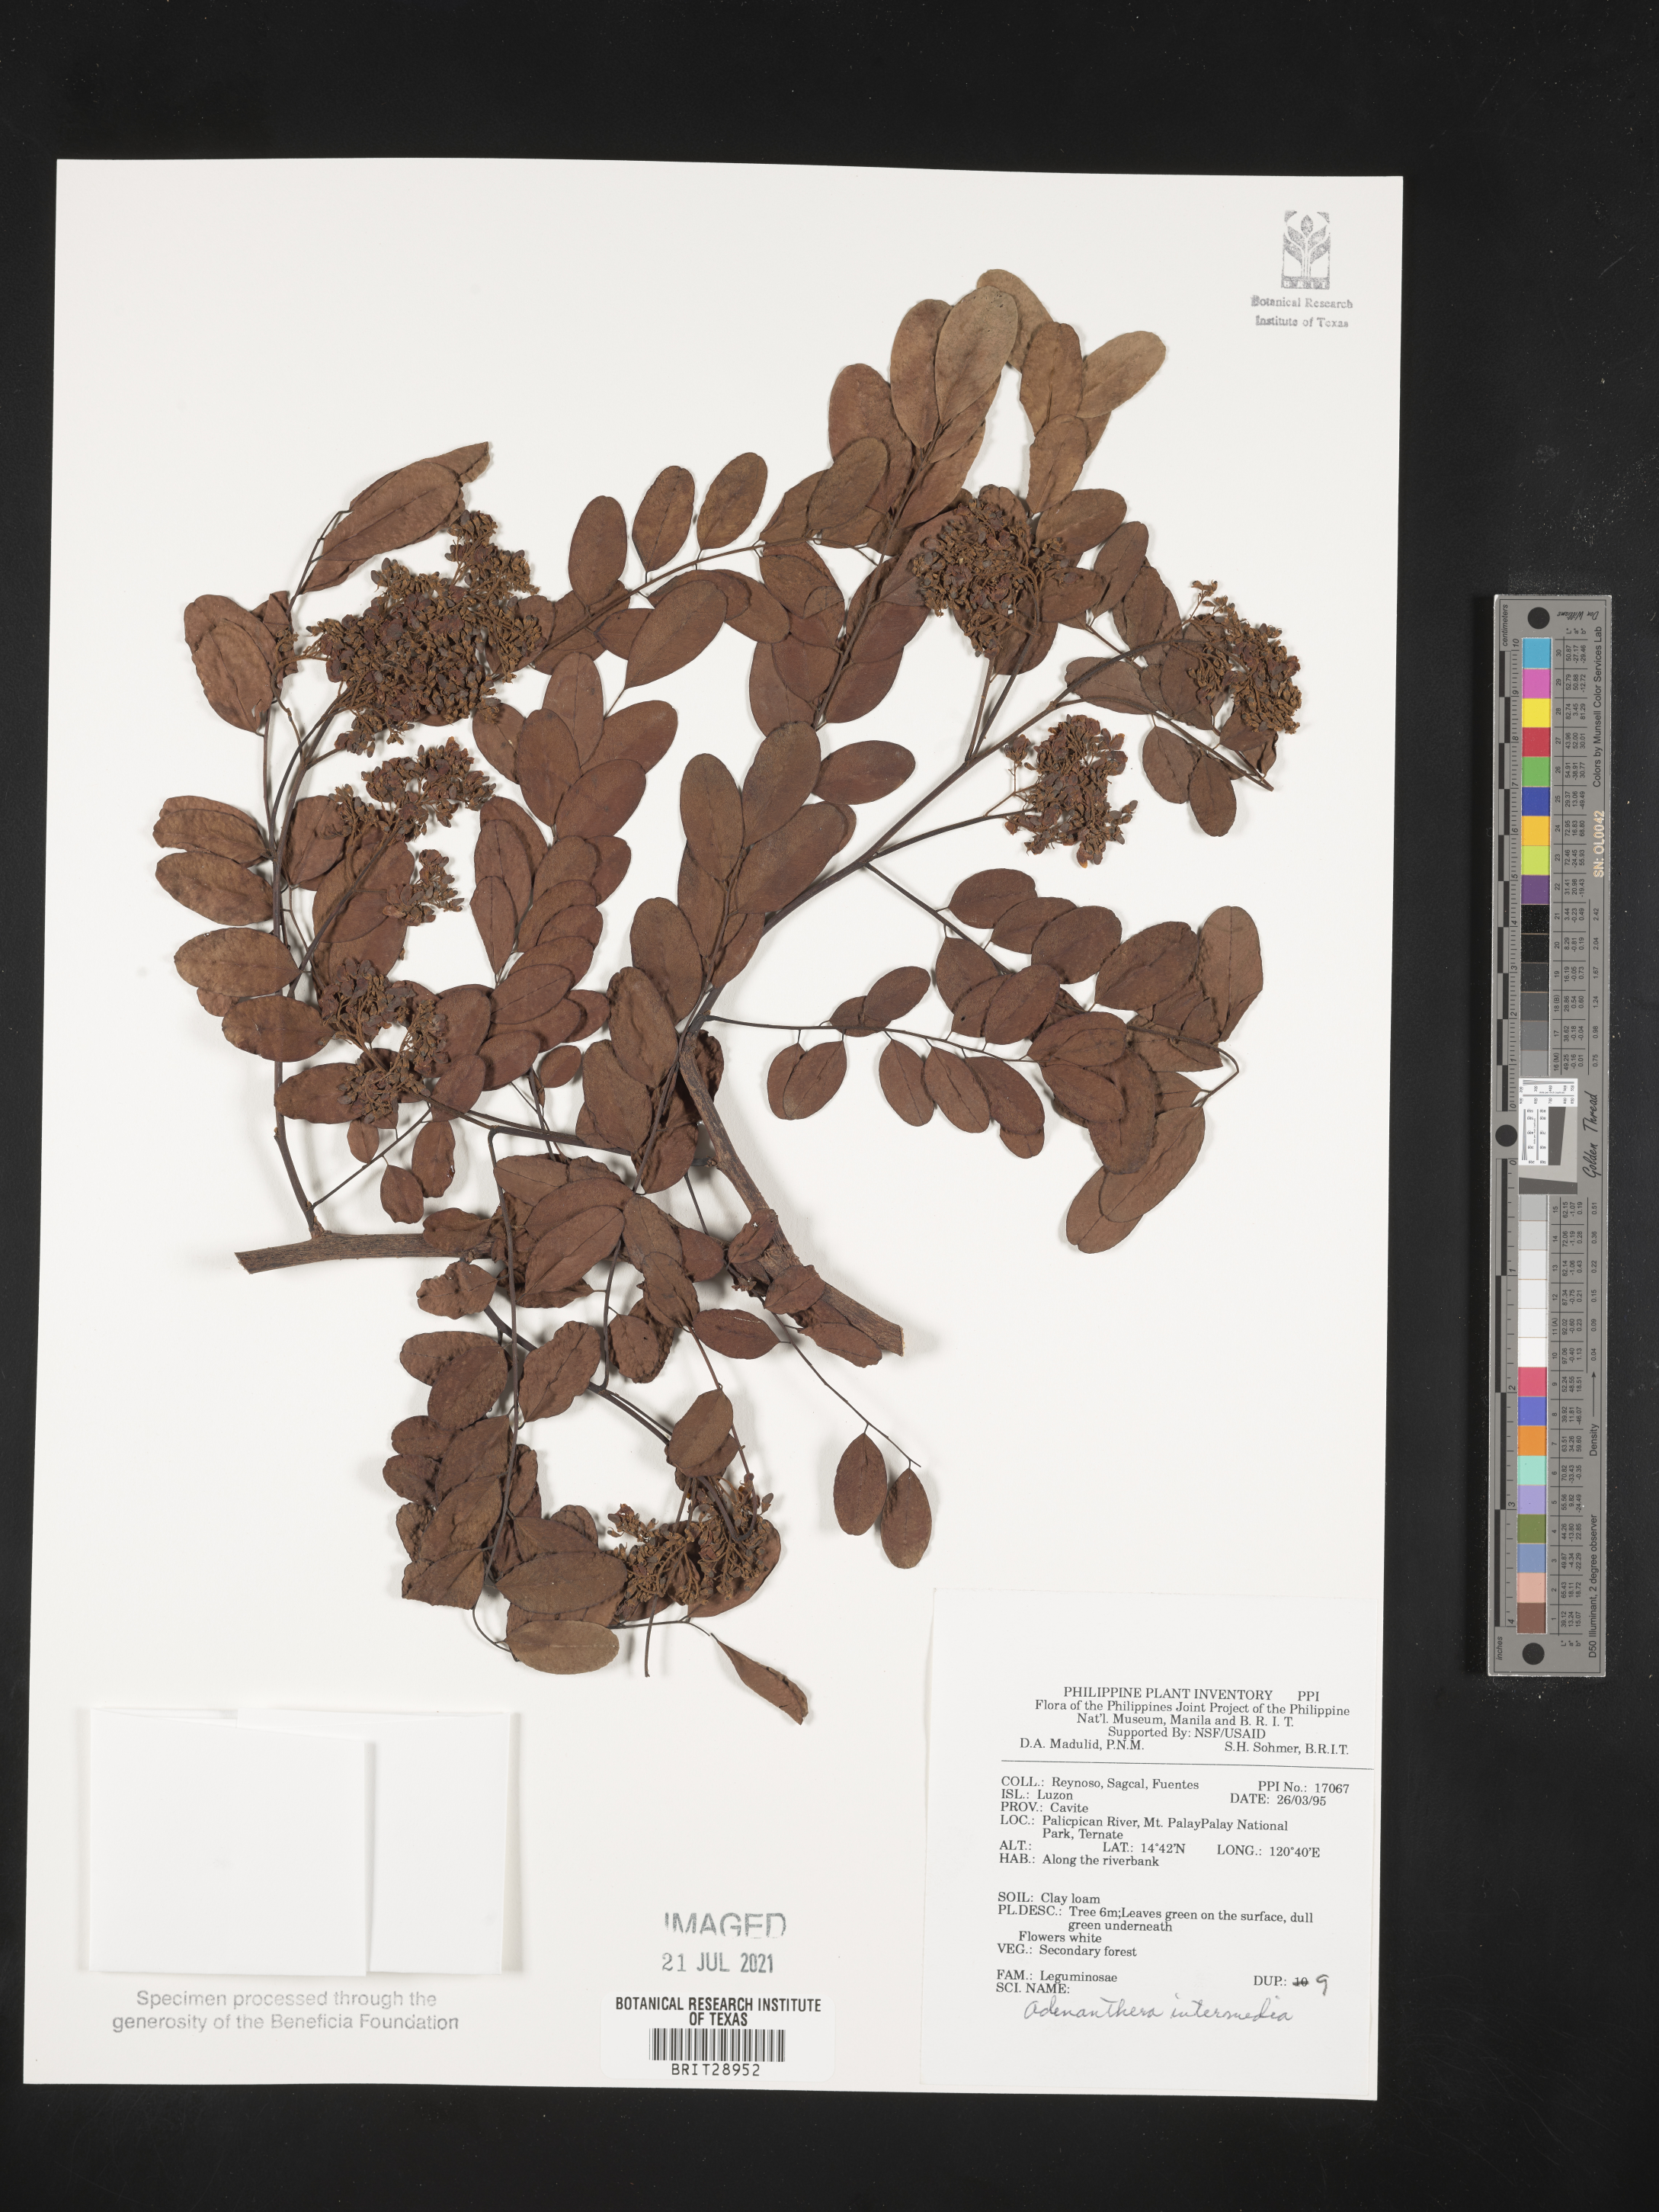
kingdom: Plantae
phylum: Tracheophyta
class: Magnoliopsida
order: Fabales
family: Fabaceae
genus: Adenanthera
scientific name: Adenanthera intermedia
